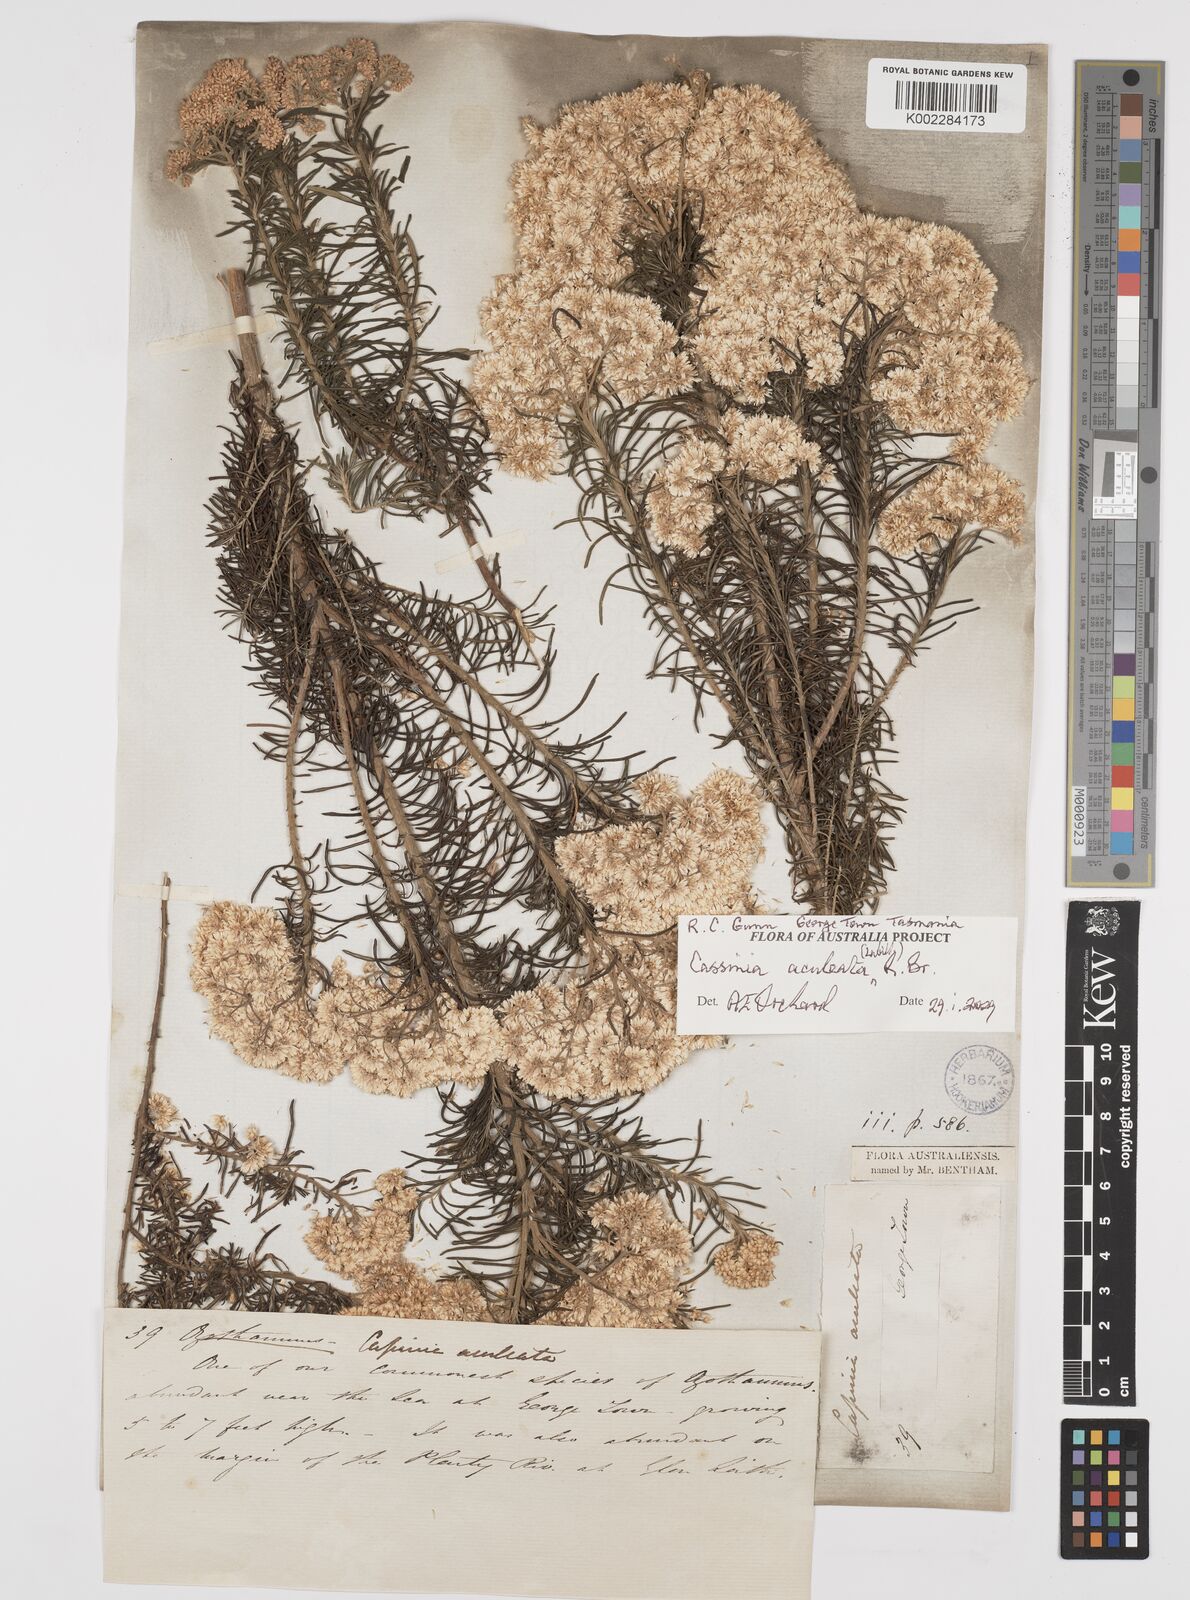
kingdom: Plantae
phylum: Tracheophyta
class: Magnoliopsida
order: Asterales
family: Asteraceae
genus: Cassinia
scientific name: Cassinia aculeata
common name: Australian tauhinu
